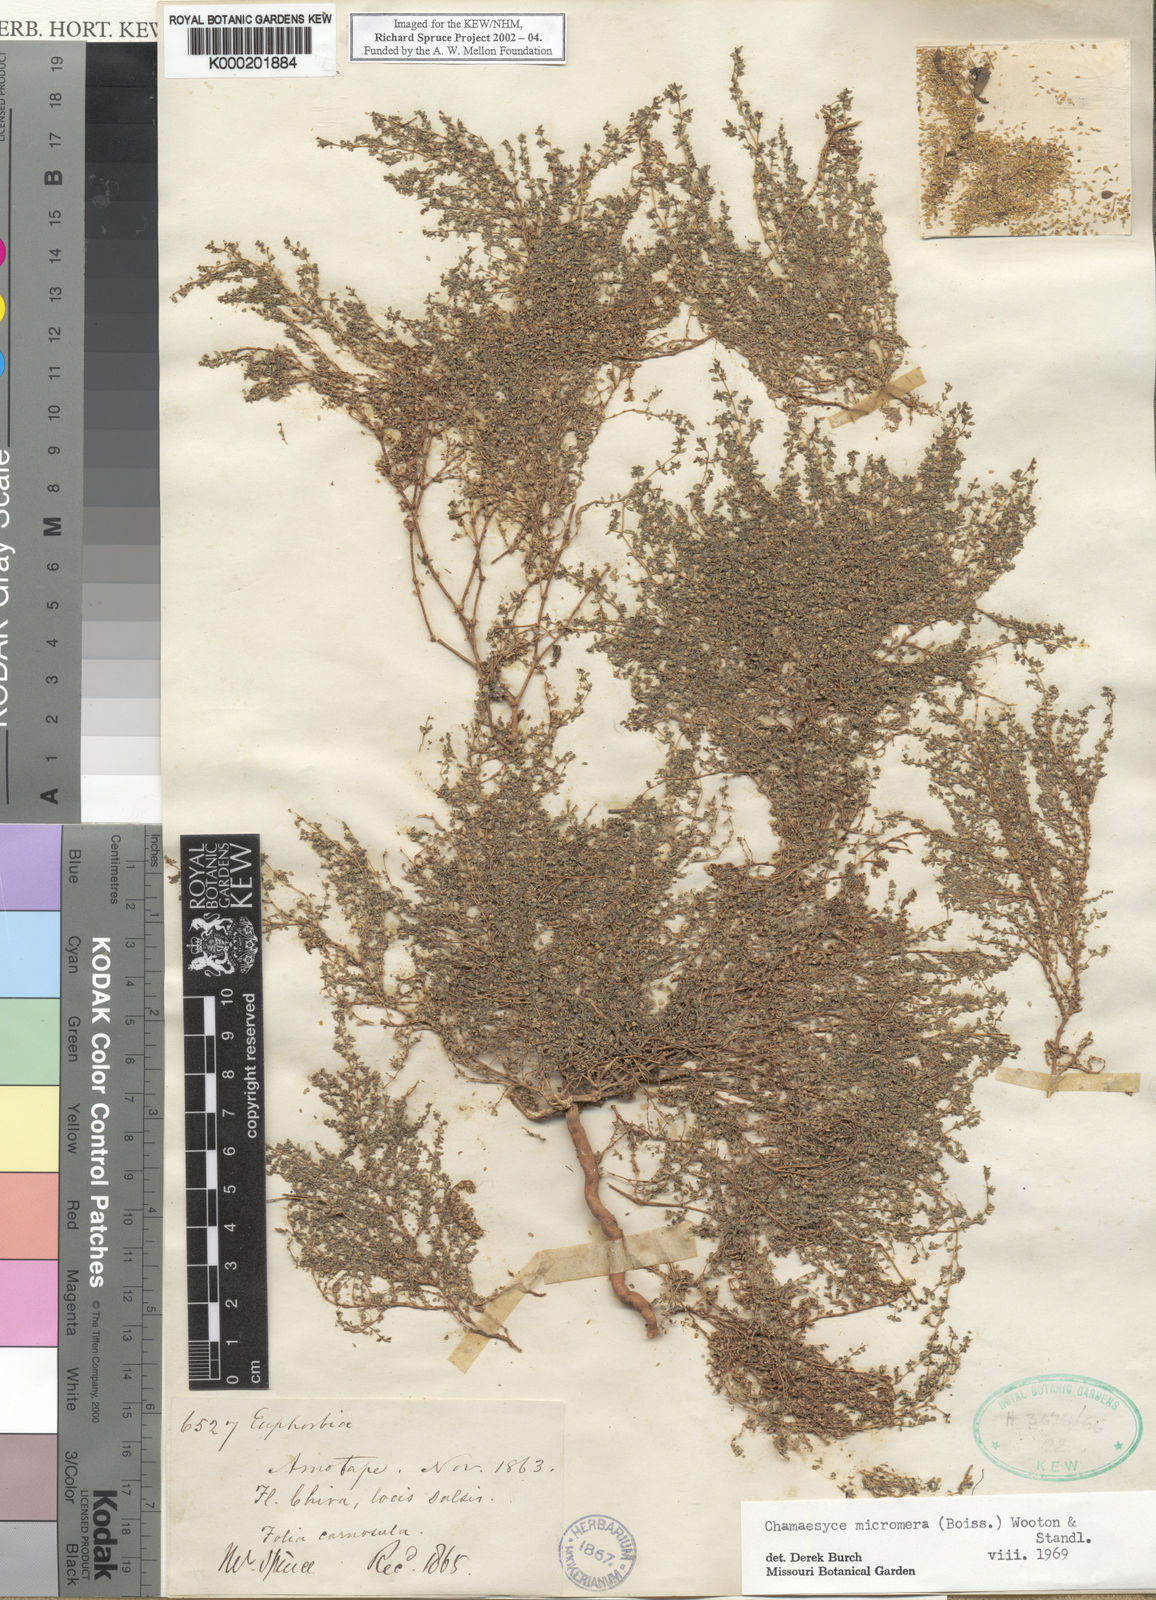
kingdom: Plantae
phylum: Tracheophyta
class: Magnoliopsida
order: Malpighiales
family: Euphorbiaceae
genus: Euphorbia
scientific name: Euphorbia micromera
